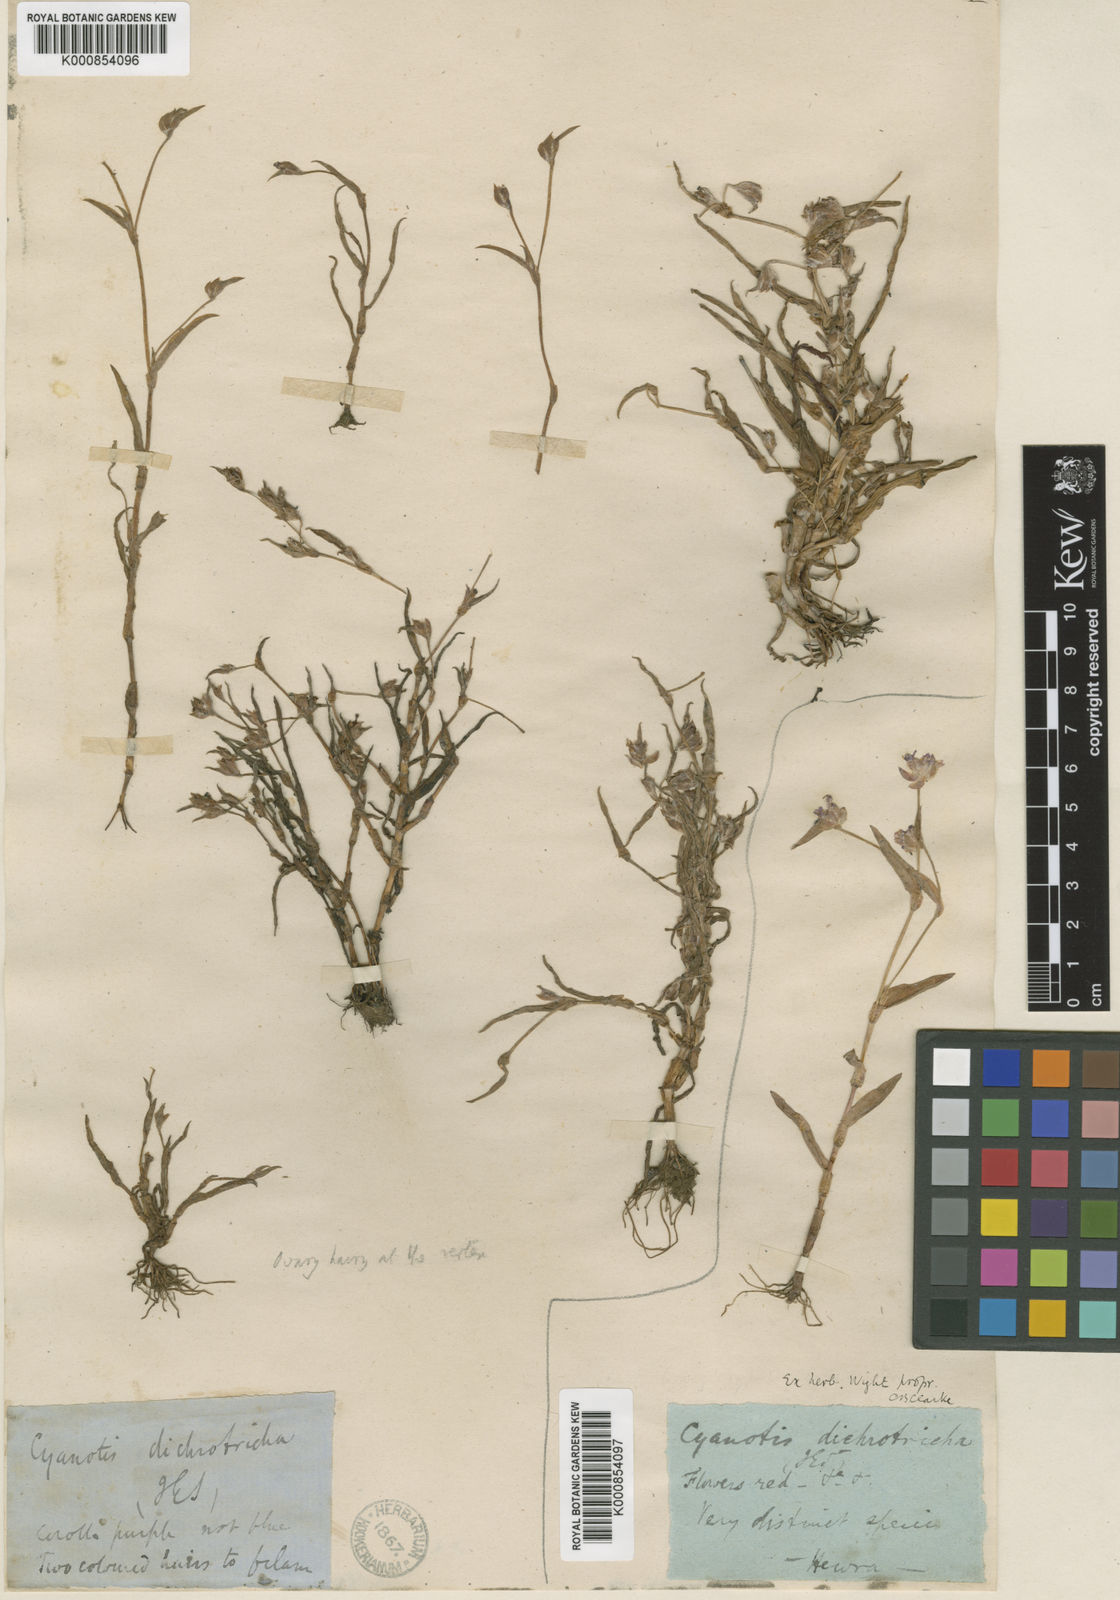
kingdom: Plantae
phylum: Tracheophyta
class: Liliopsida
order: Commelinales
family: Commelinaceae
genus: Cyanotis
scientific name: Cyanotis fasciculata
